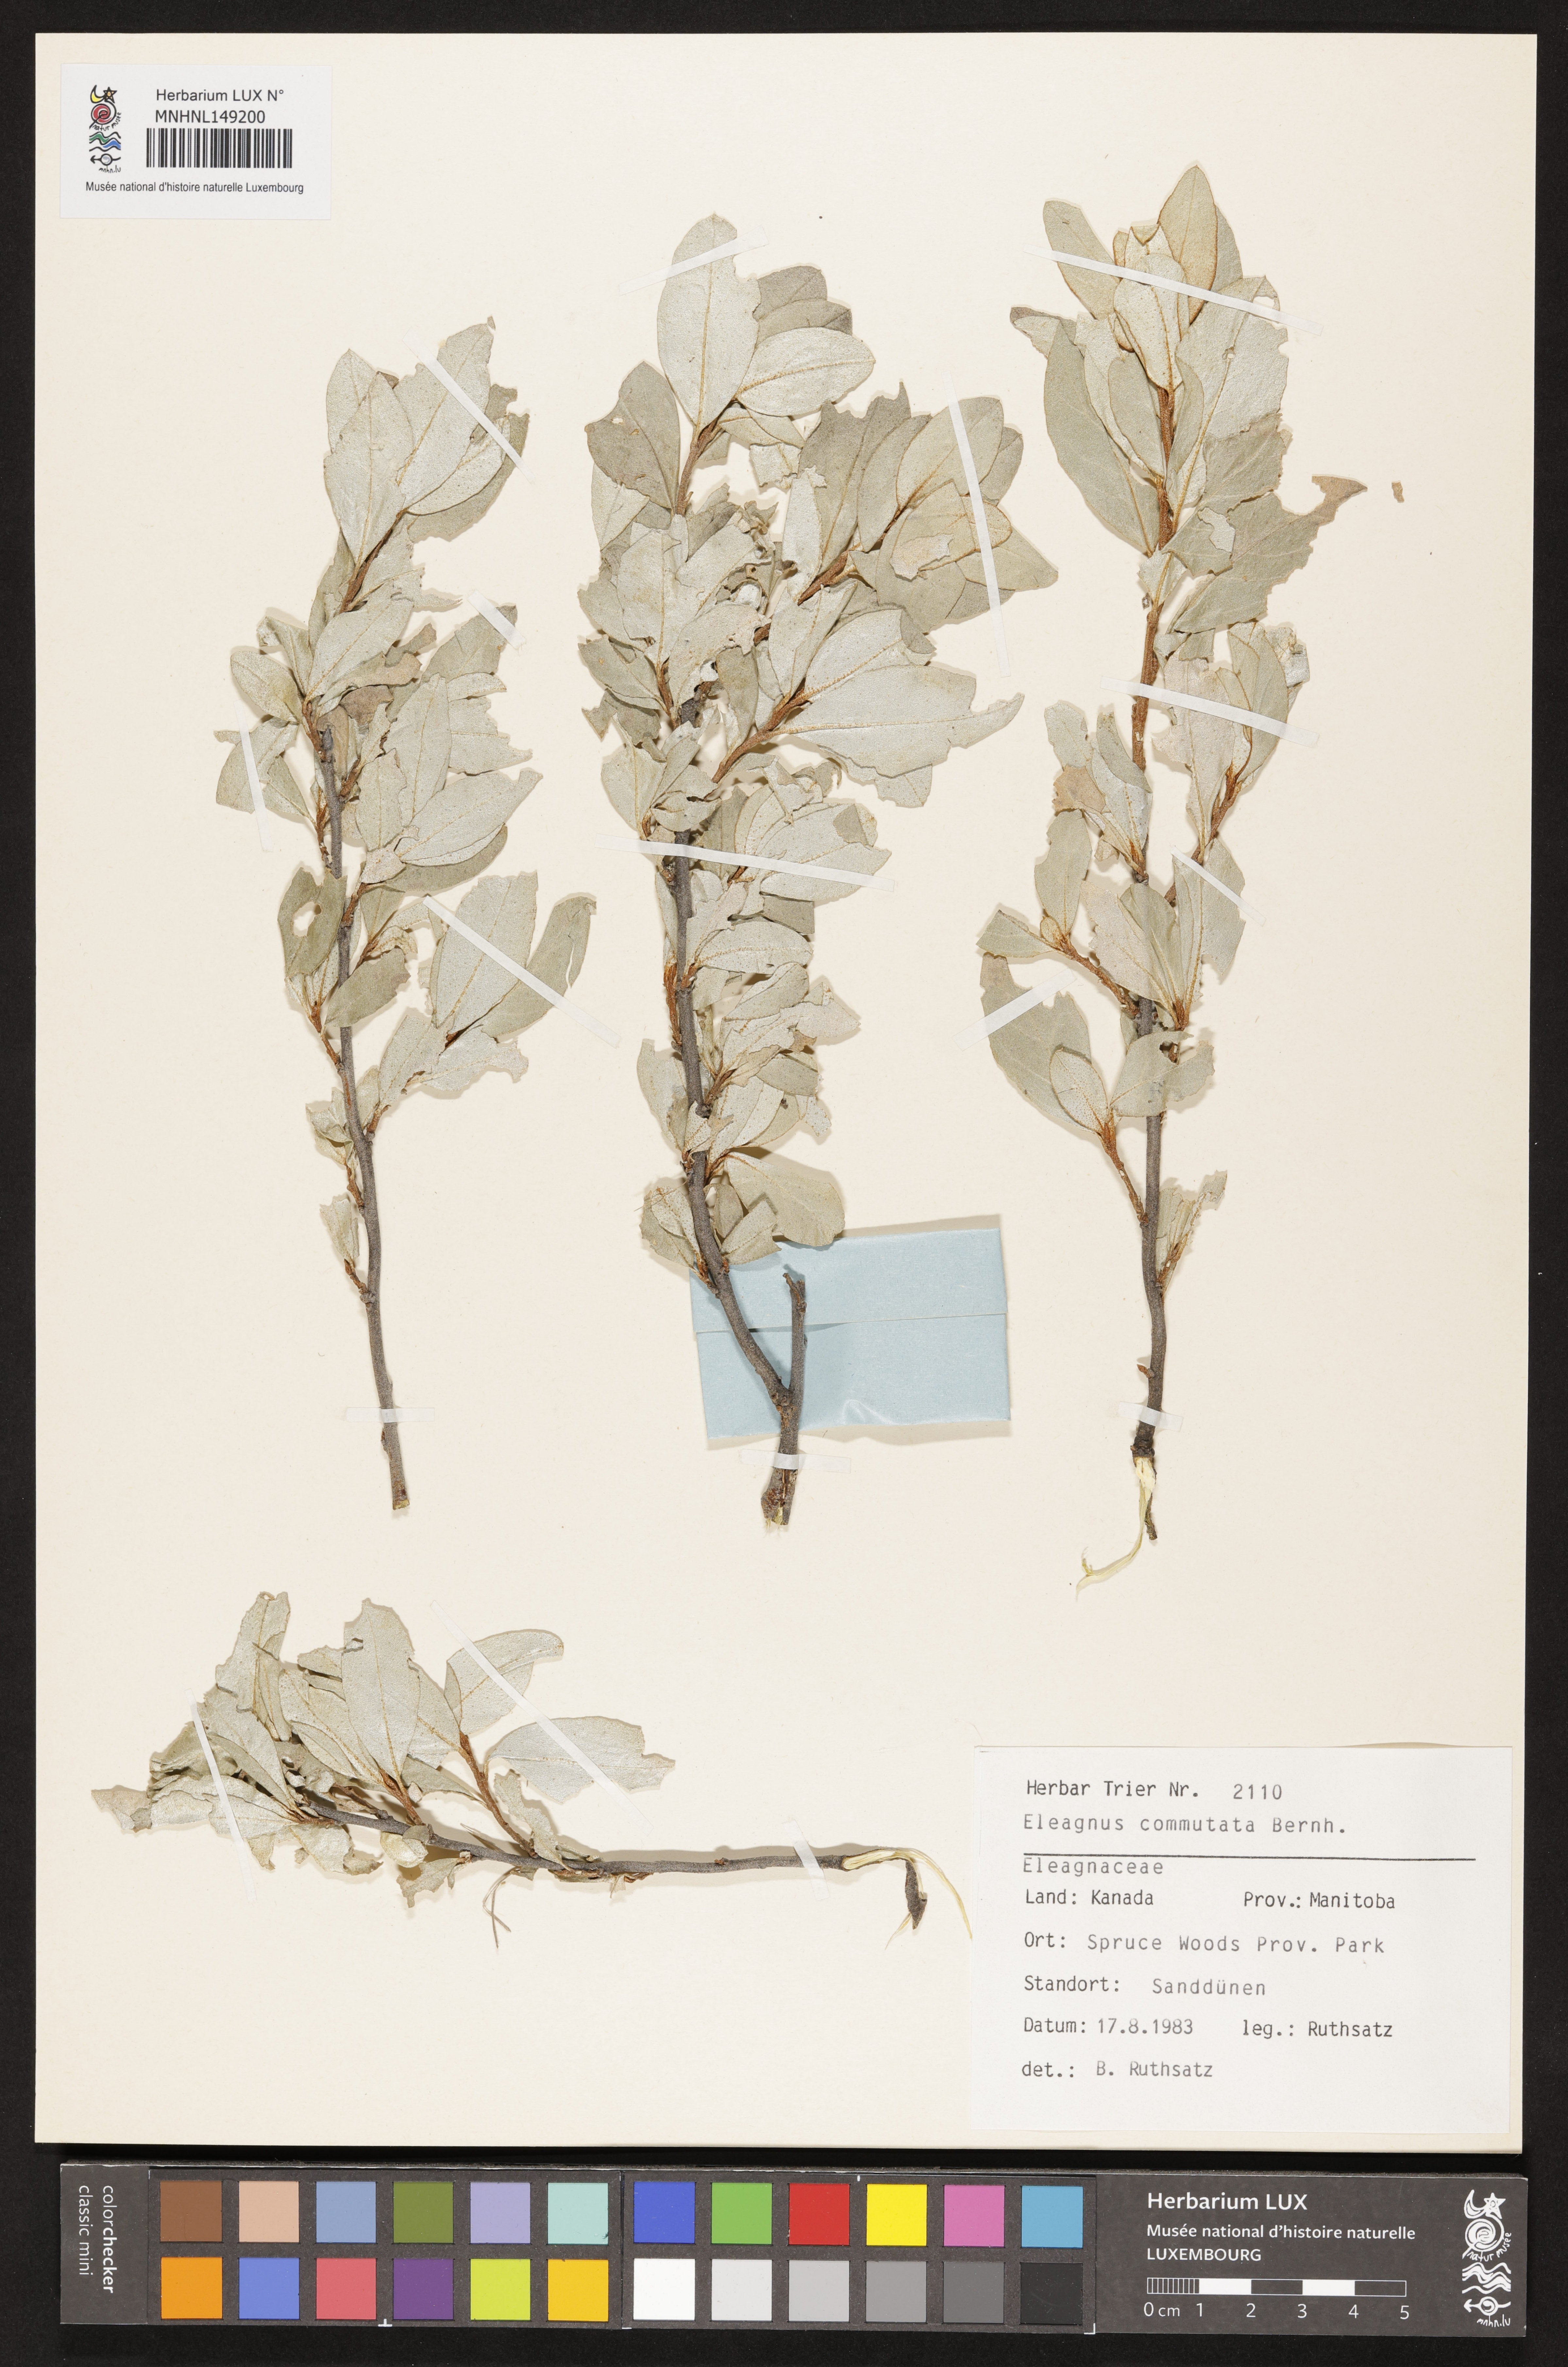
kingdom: Plantae
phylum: Tracheophyta
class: Magnoliopsida
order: Rosales
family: Elaeagnaceae
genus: Elaeagnus
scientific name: Elaeagnus commutata
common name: Silverberry
